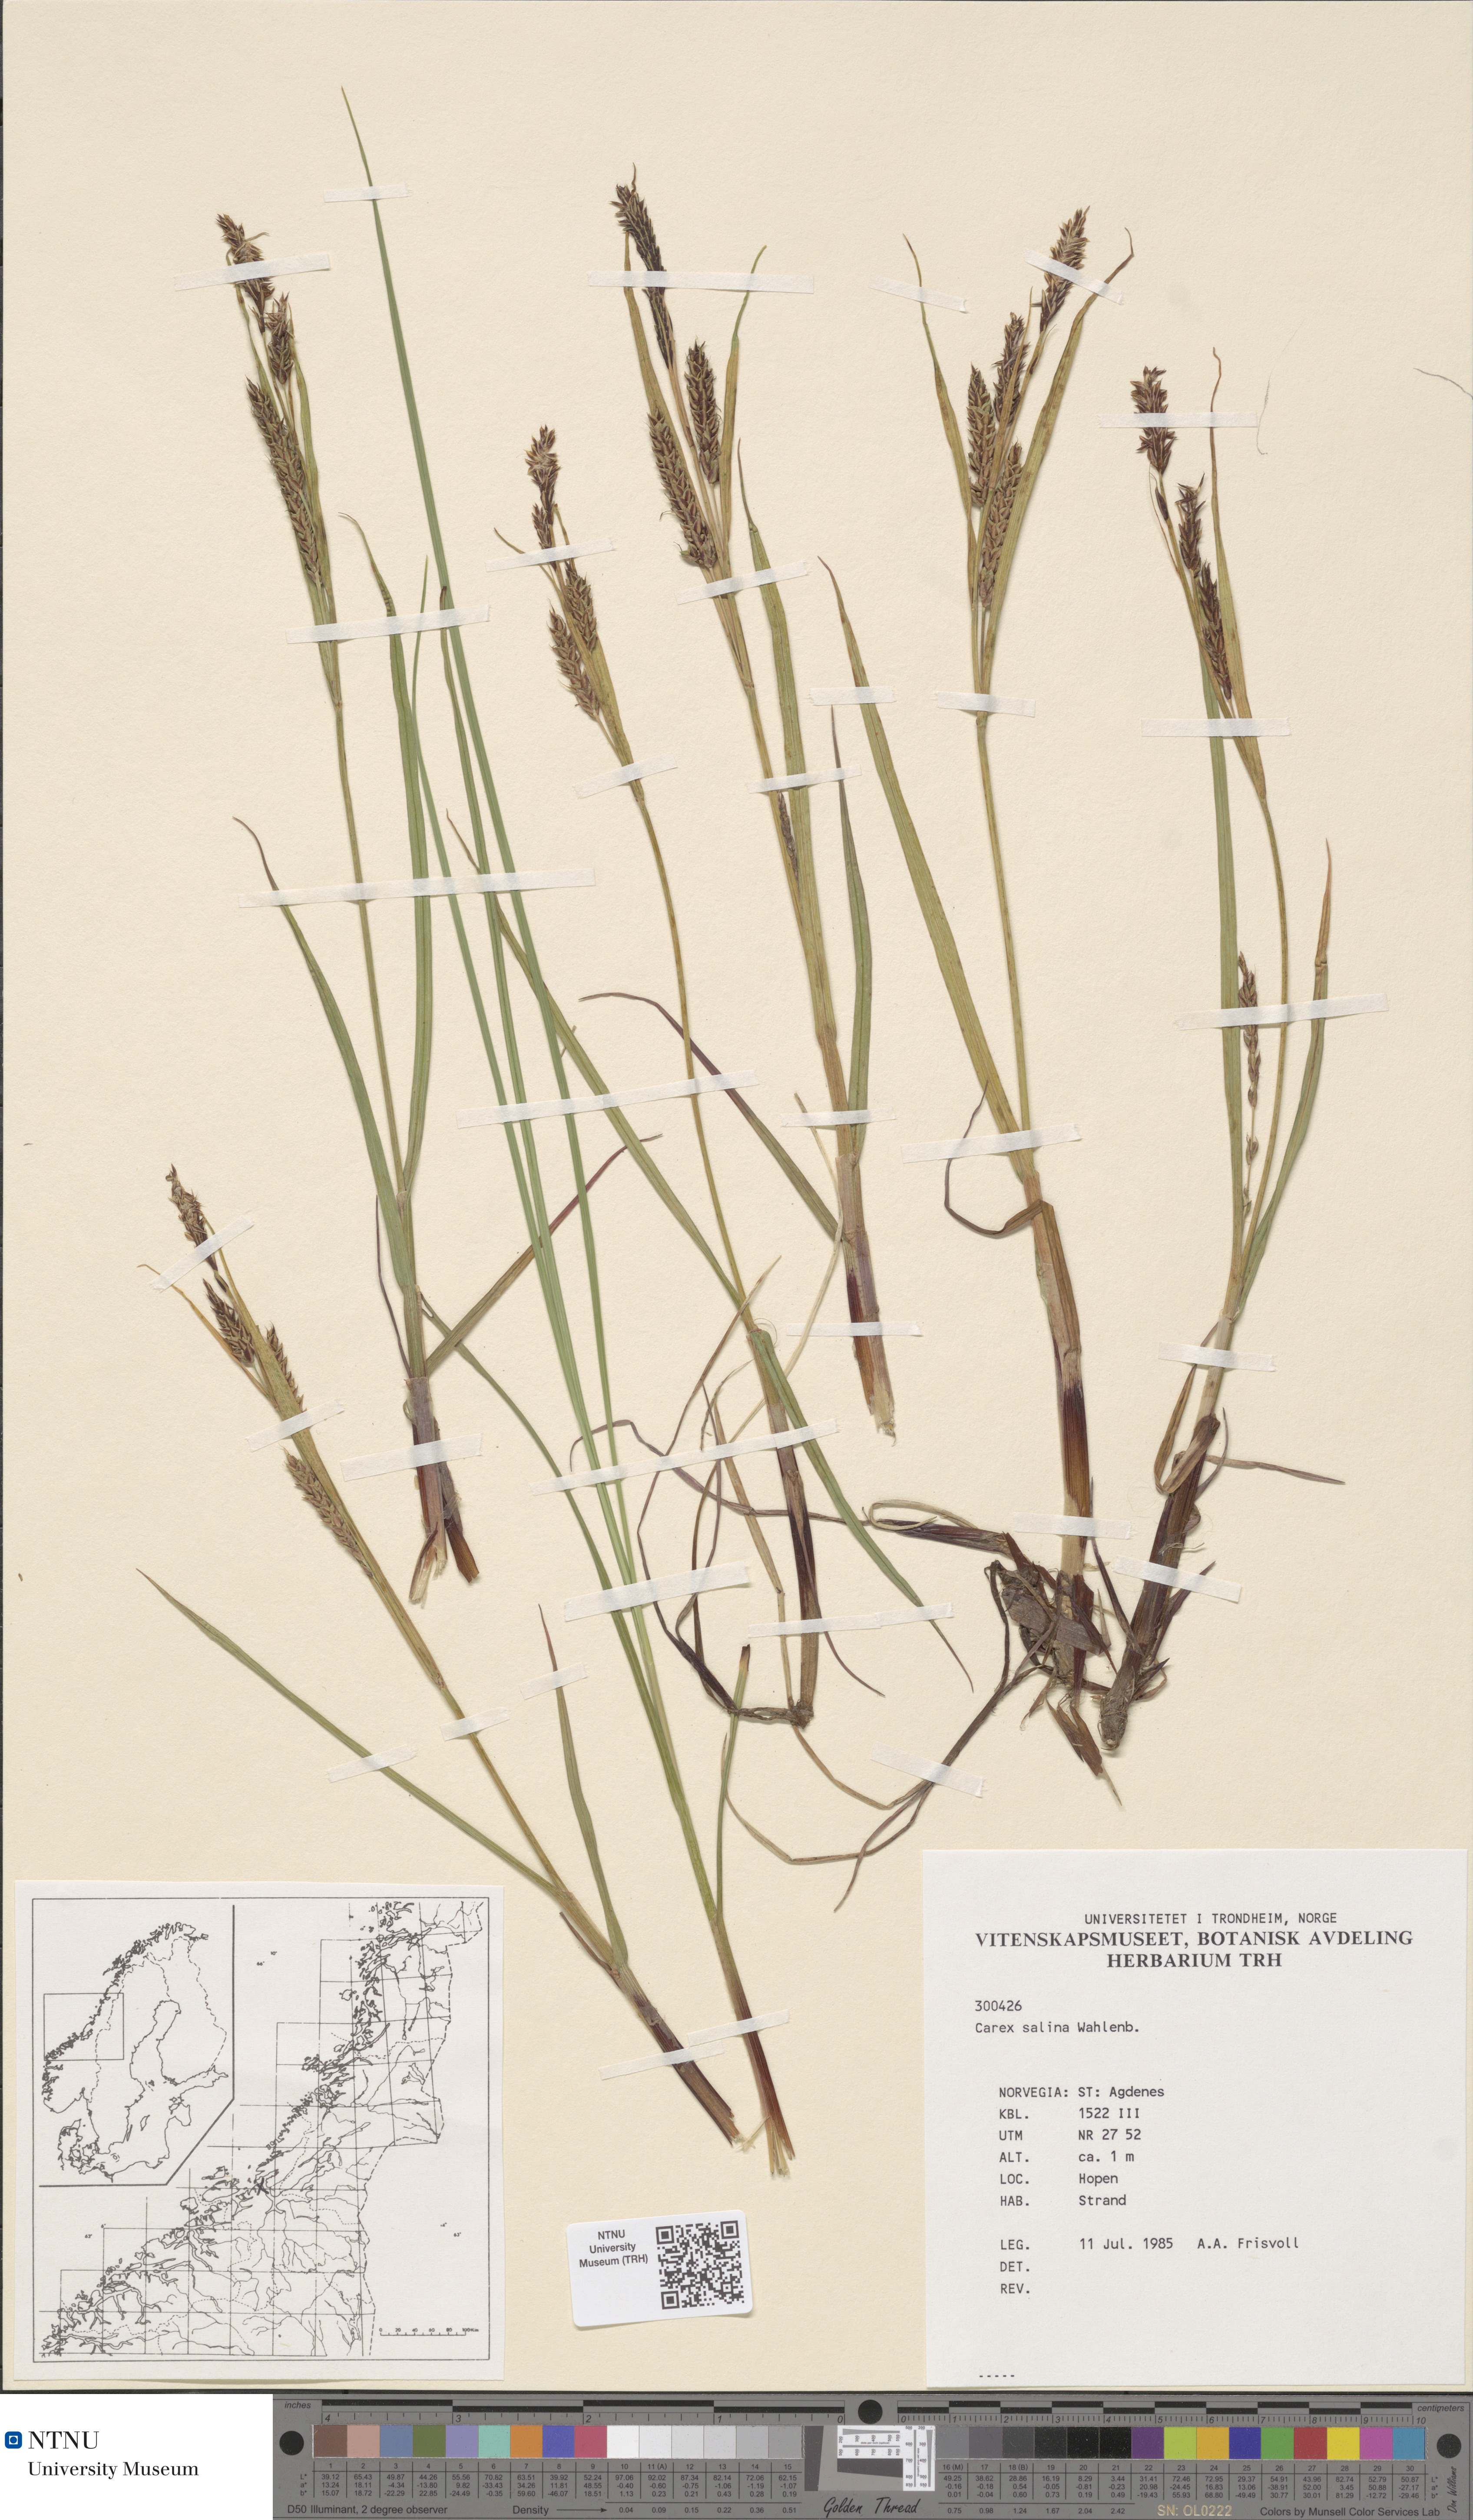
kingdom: Plantae
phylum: Tracheophyta
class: Liliopsida
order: Poales
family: Cyperaceae
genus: Carex
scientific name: Carex salina
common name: Saltmarsh sedge
